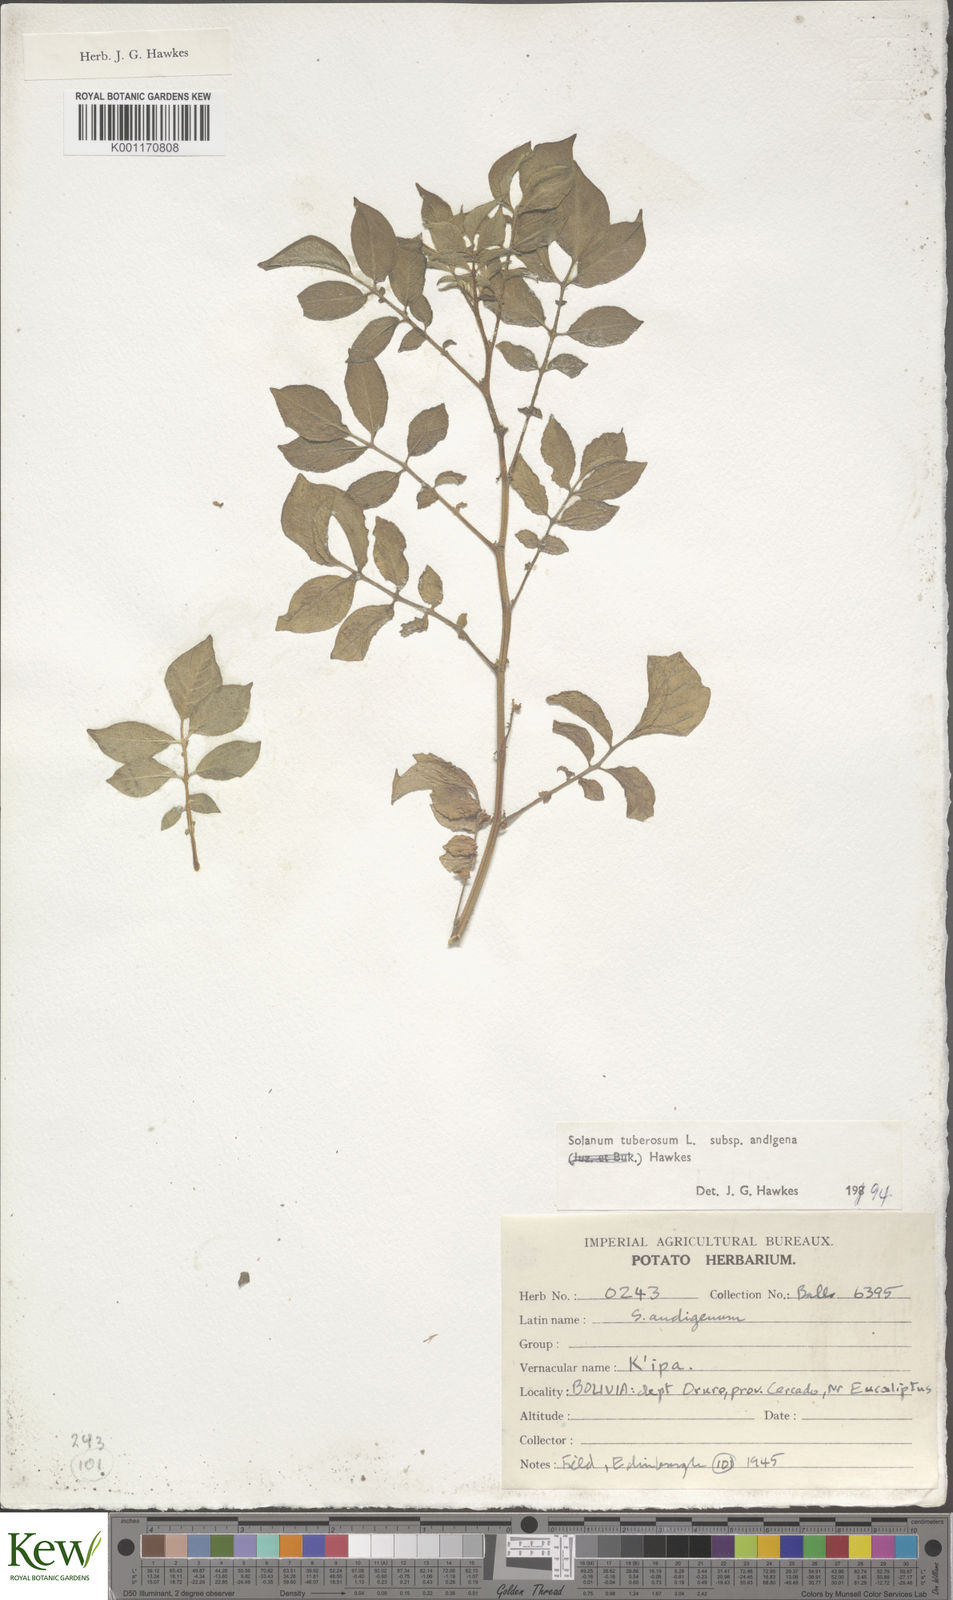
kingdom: Plantae
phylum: Tracheophyta
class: Magnoliopsida
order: Solanales
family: Solanaceae
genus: Solanum
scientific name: Solanum tuberosum
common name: Potato
